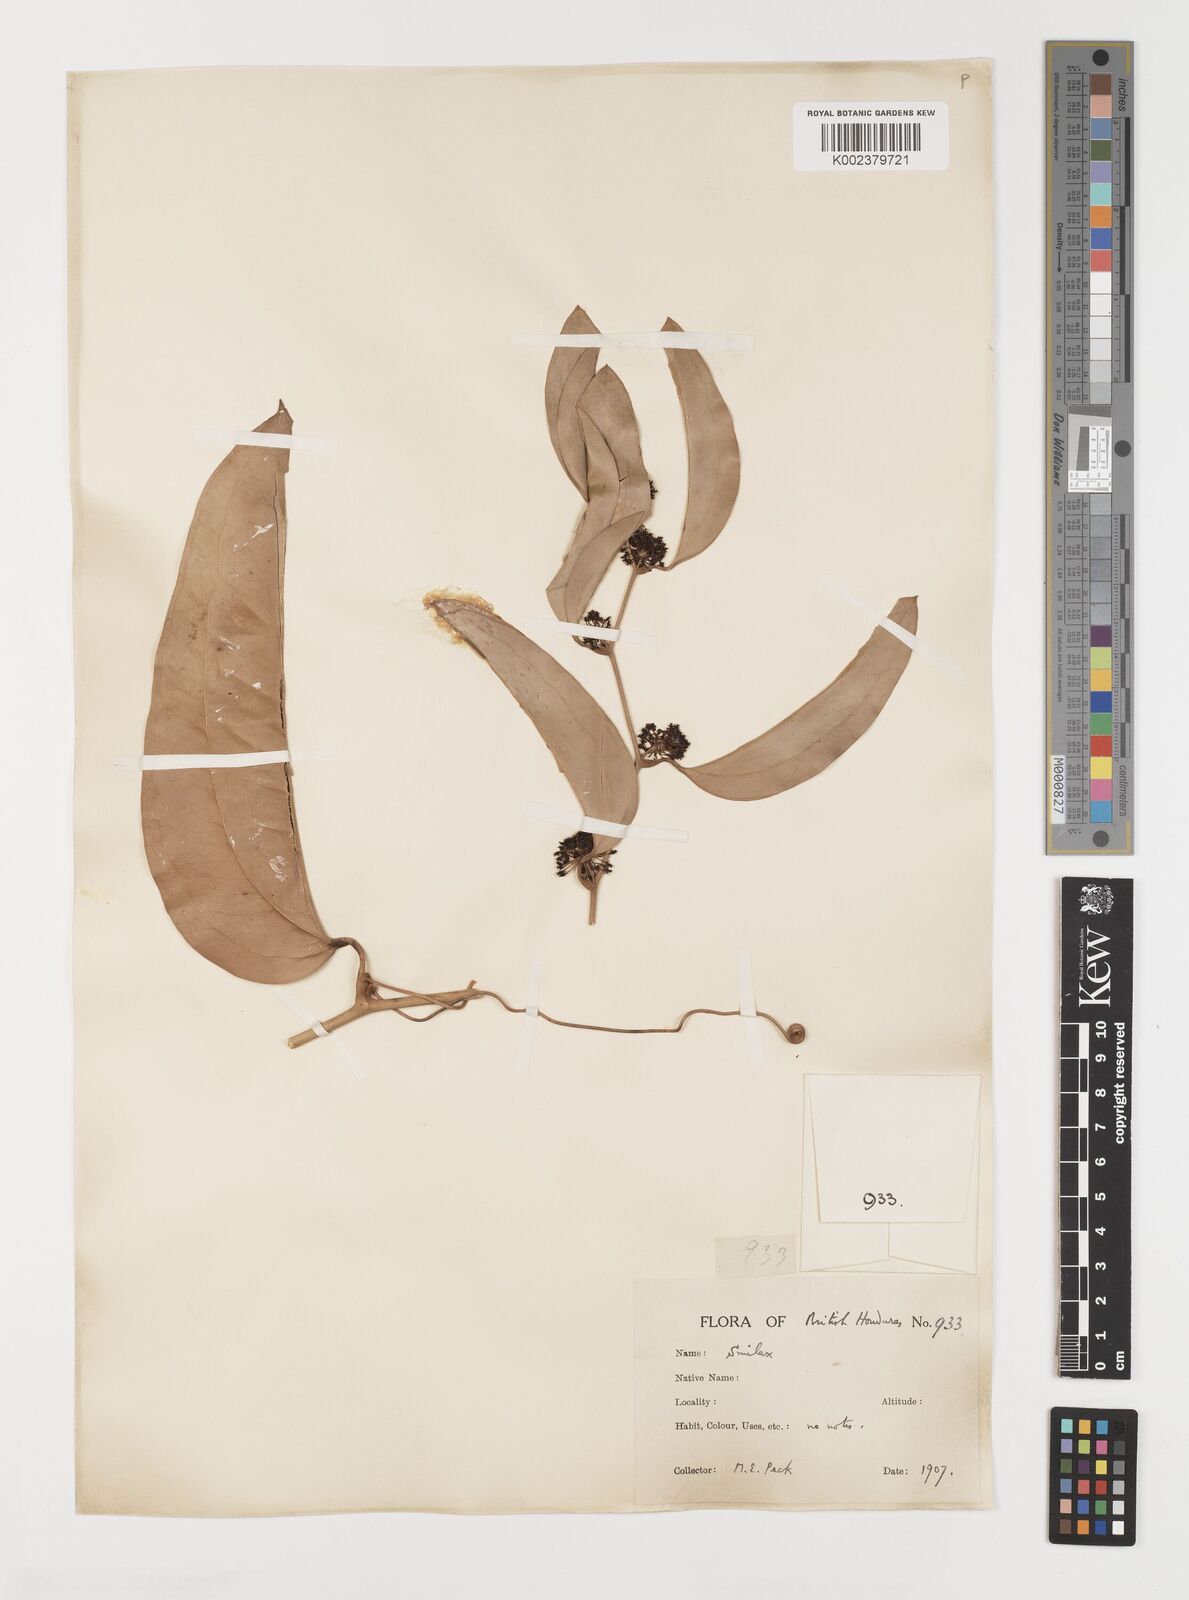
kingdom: Plantae
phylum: Tracheophyta
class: Liliopsida
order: Liliales
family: Smilacaceae
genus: Smilax
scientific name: Smilax
